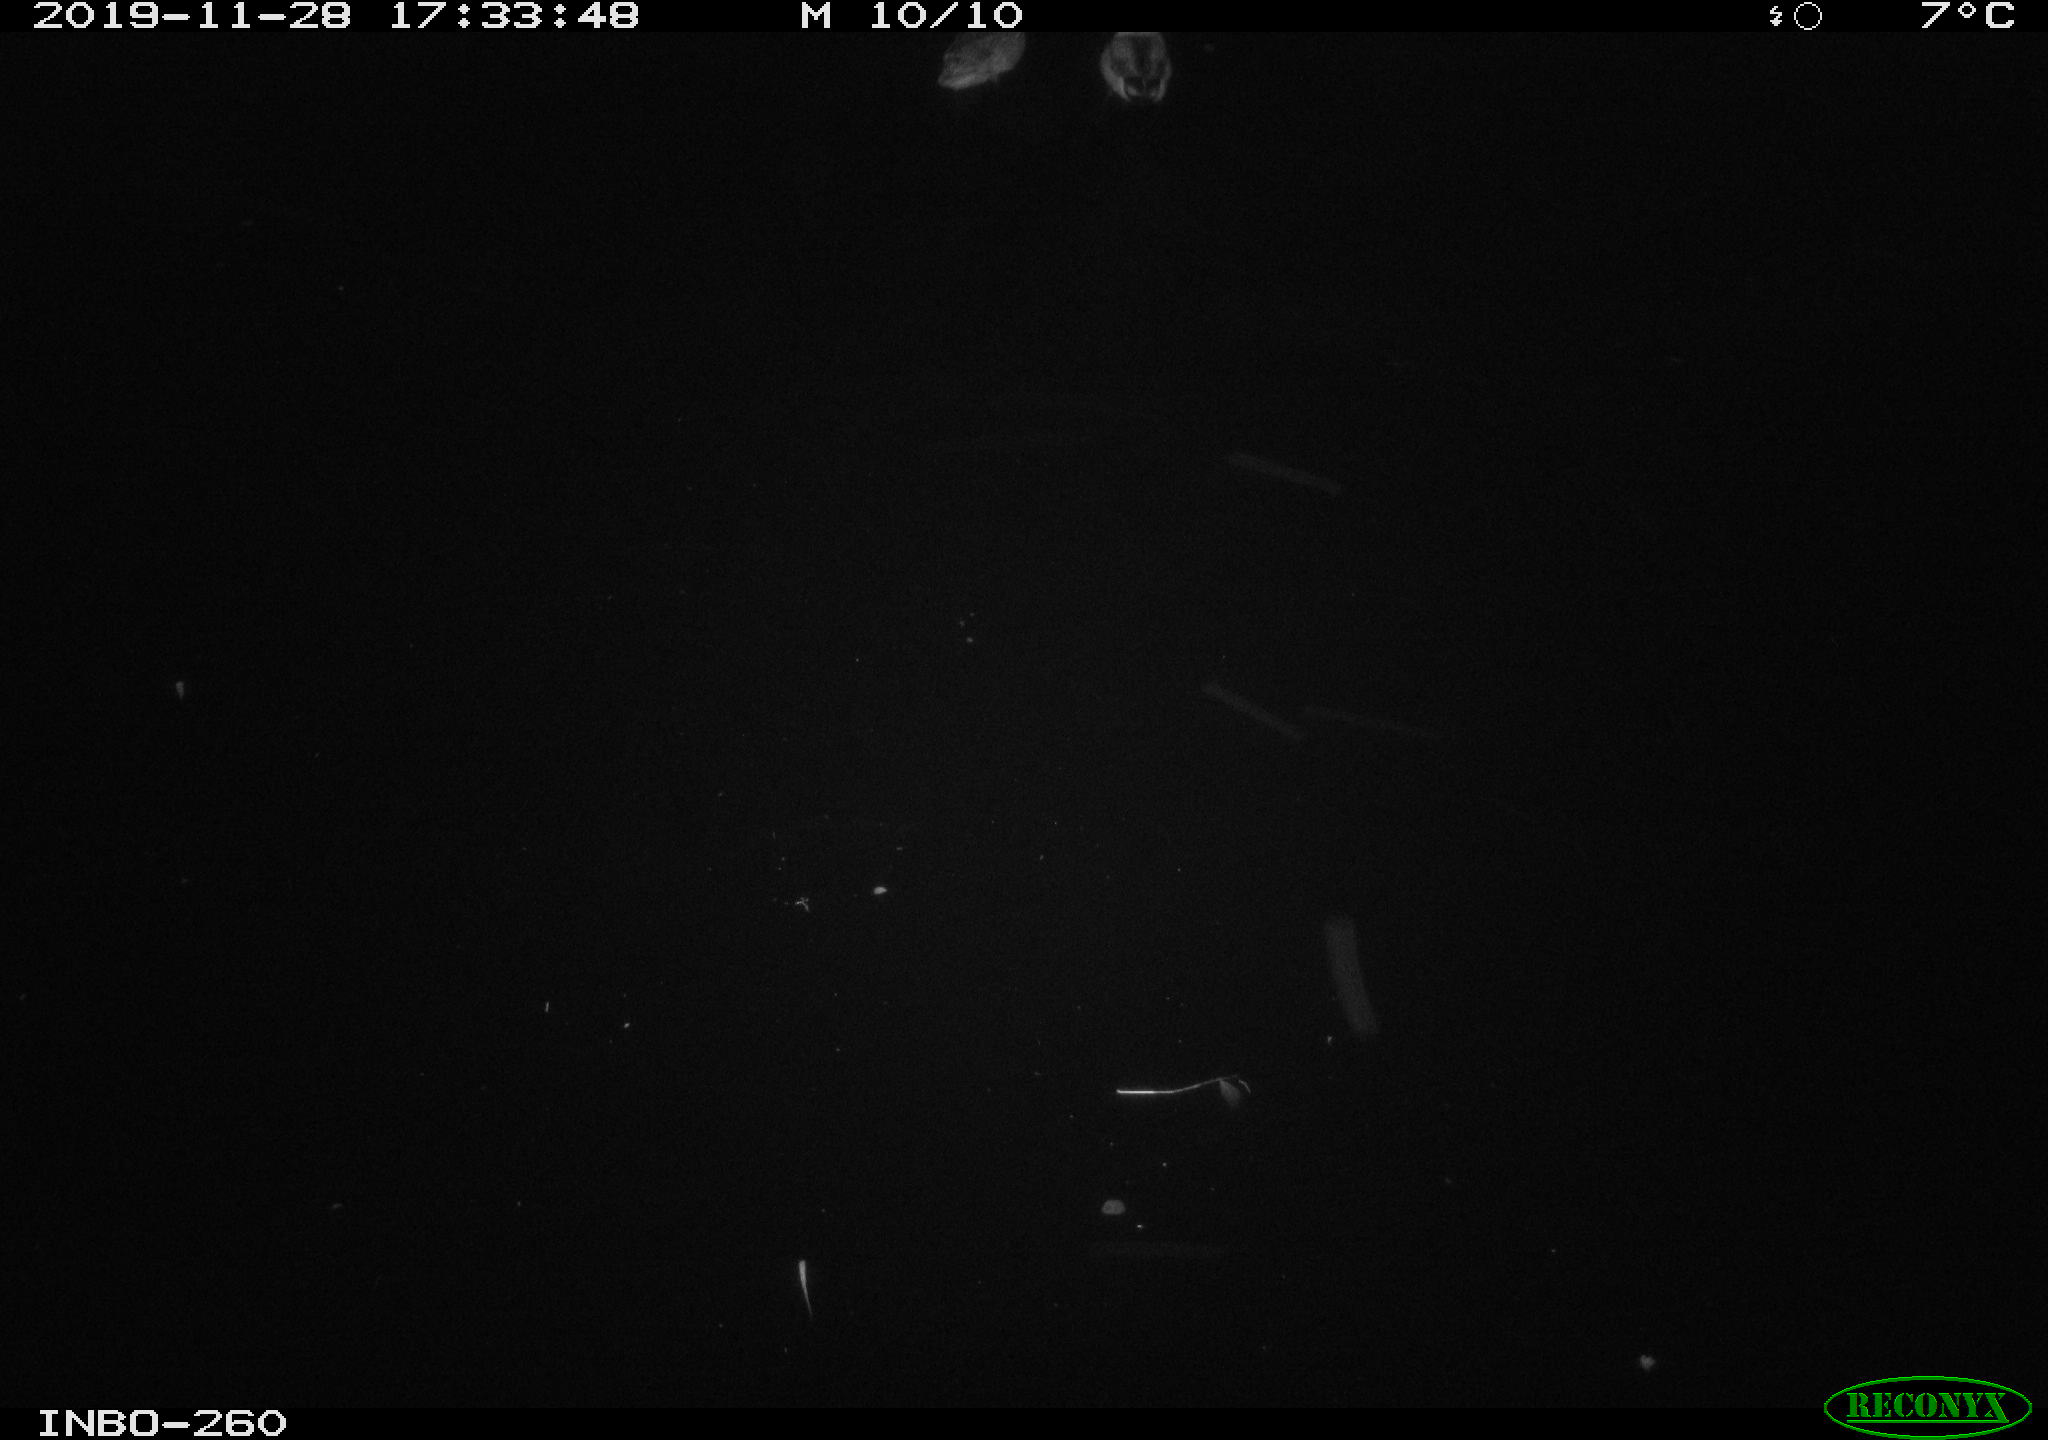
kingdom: Animalia
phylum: Chordata
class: Aves
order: Anseriformes
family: Anatidae
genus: Anas
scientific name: Anas platyrhynchos
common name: Mallard
